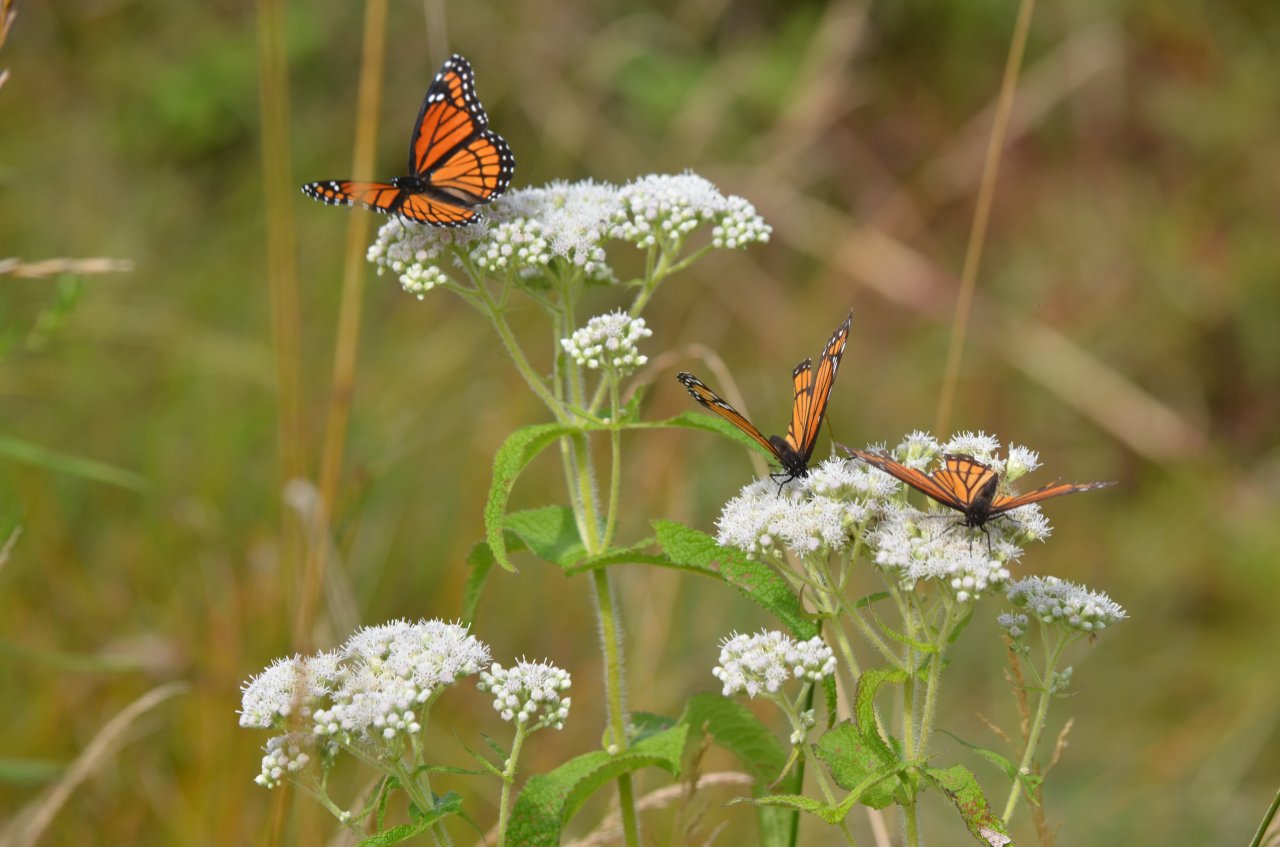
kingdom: Animalia
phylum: Arthropoda
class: Insecta
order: Lepidoptera
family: Nymphalidae
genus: Limenitis
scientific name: Limenitis archippus
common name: Viceroy
